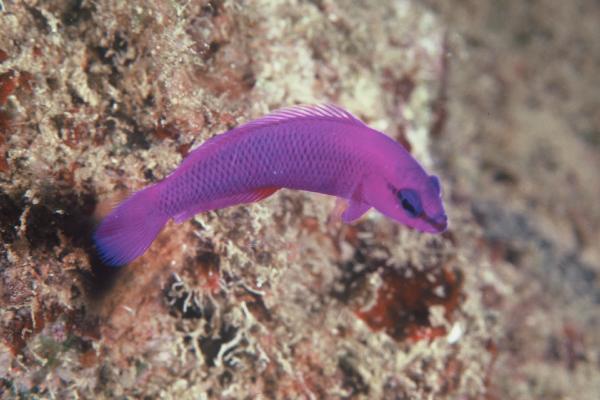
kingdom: Animalia
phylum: Chordata
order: Perciformes
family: Pseudochromidae
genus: Pseudochromis
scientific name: Pseudochromis fridmani
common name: Orchid dottyback
